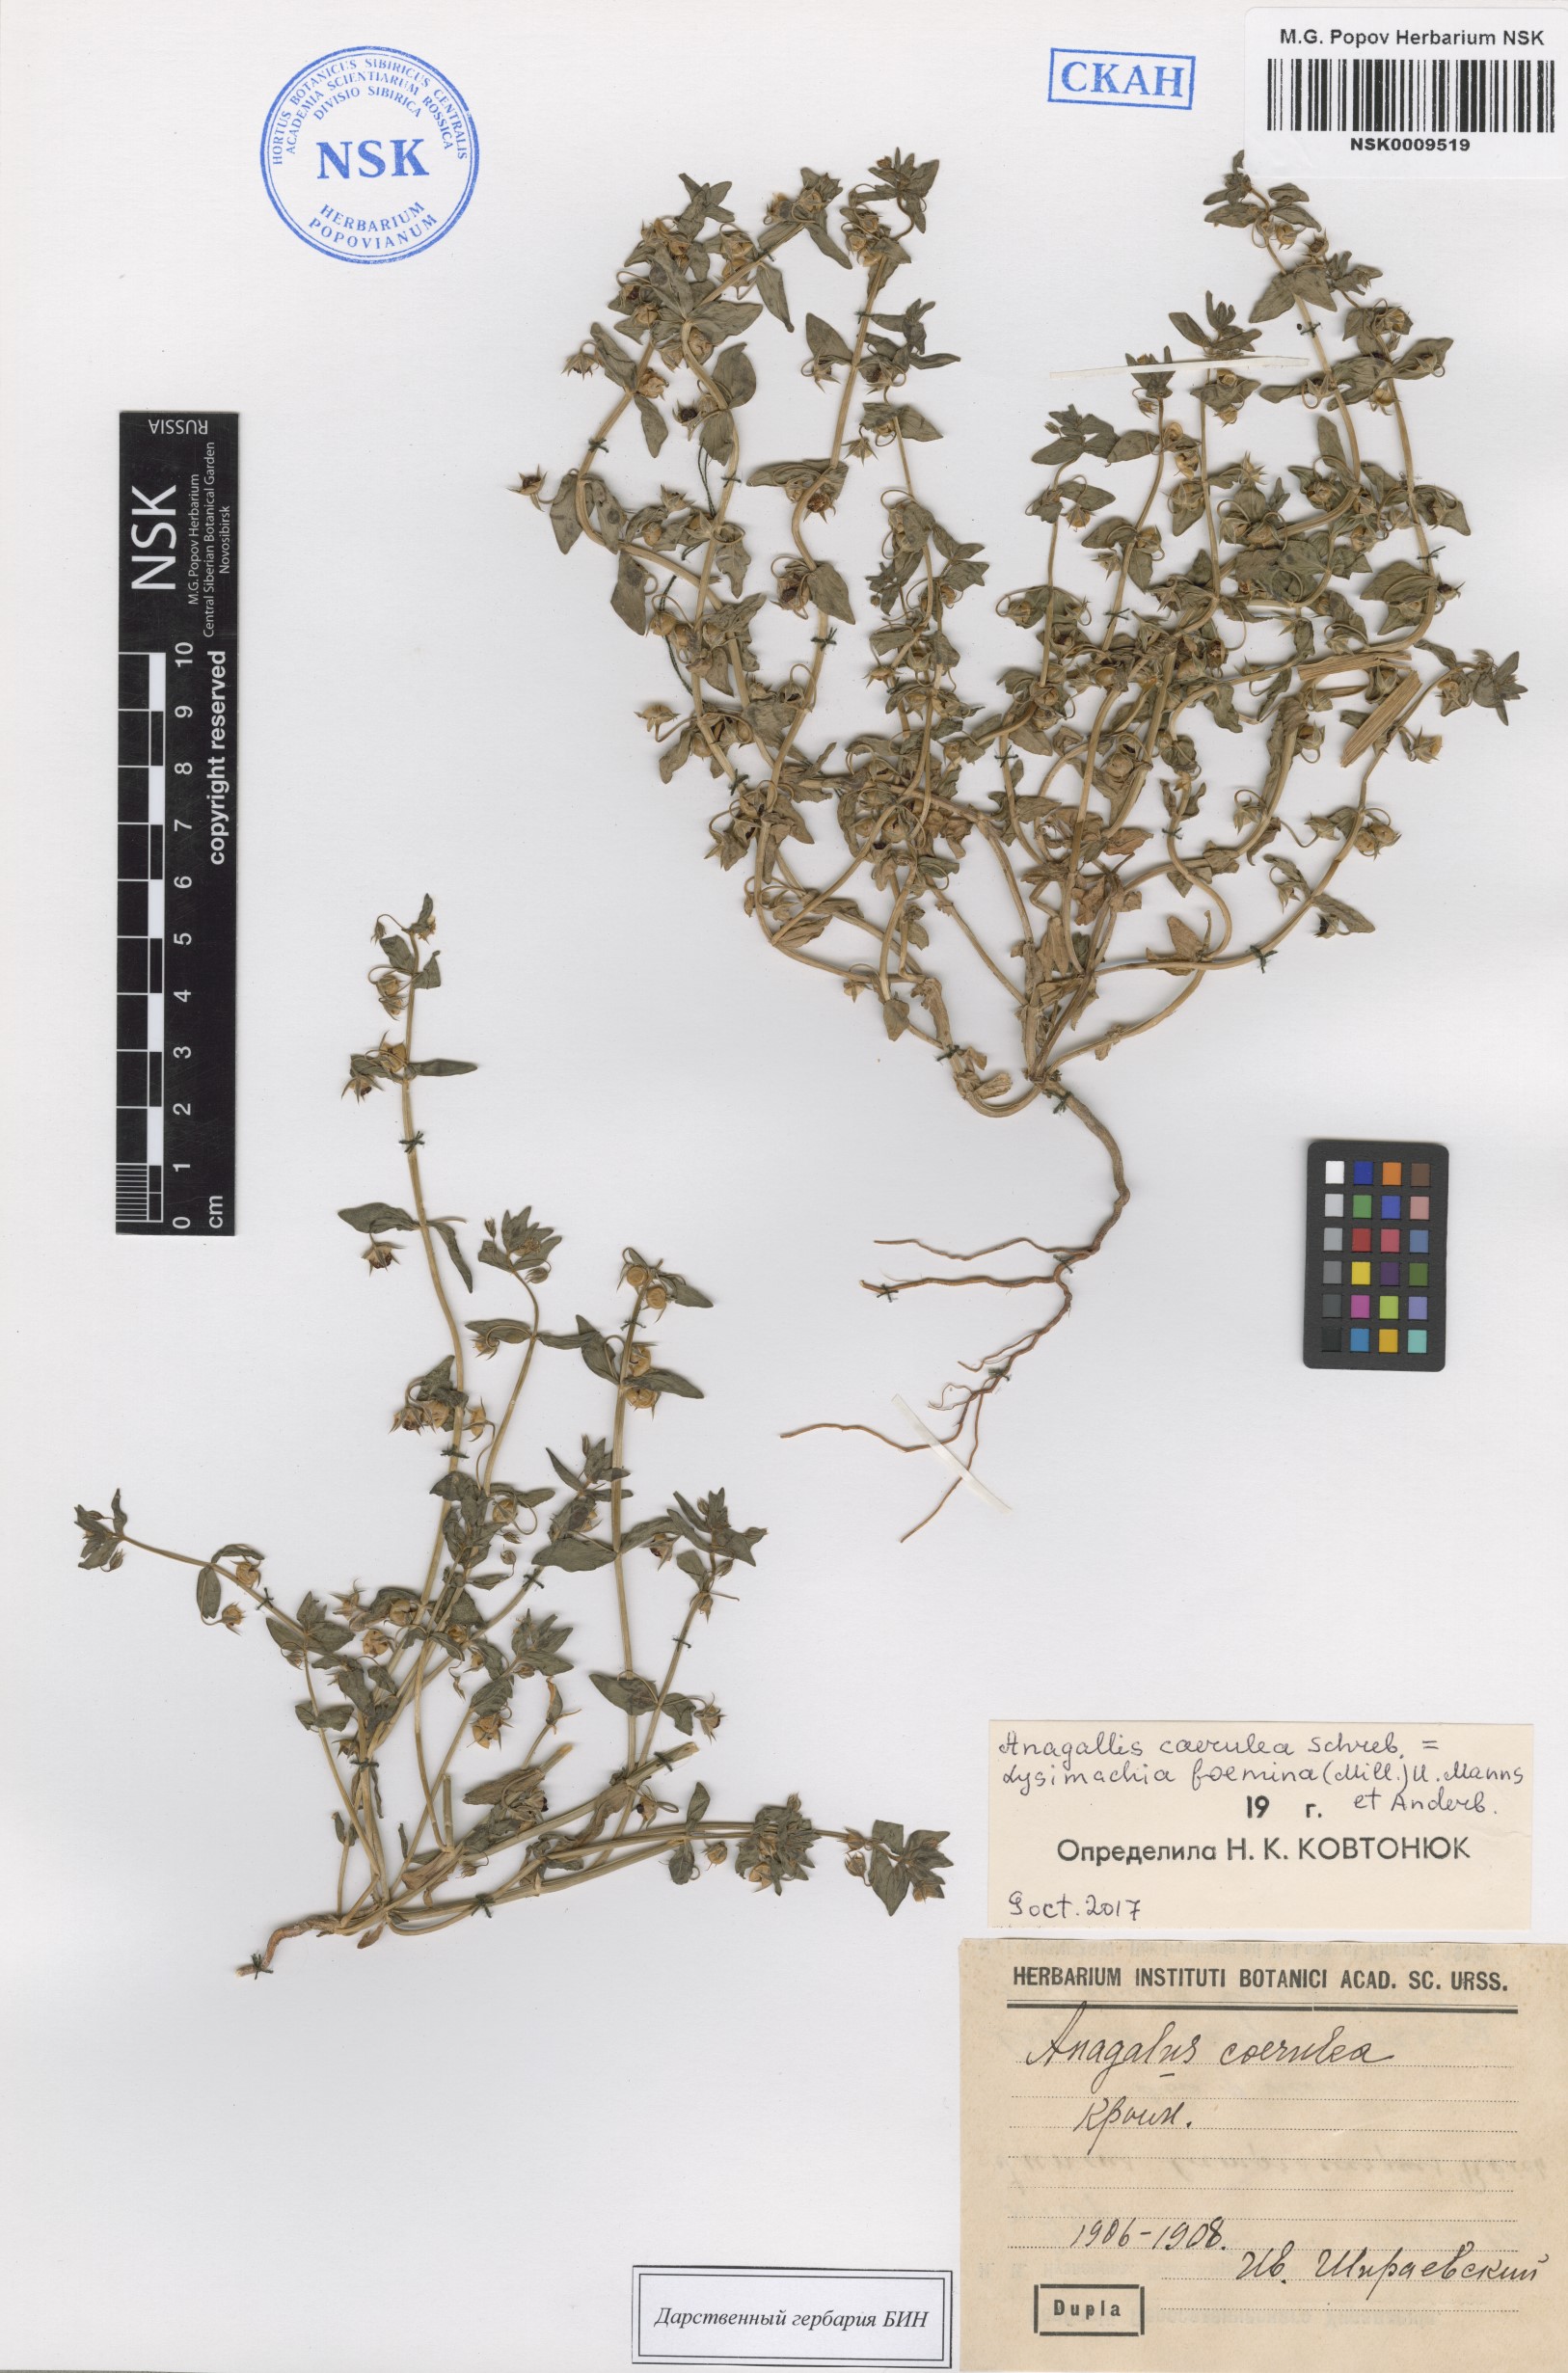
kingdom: Plantae
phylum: Tracheophyta
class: Magnoliopsida
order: Ericales
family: Primulaceae
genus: Lysimachia
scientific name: Lysimachia loeflingii
